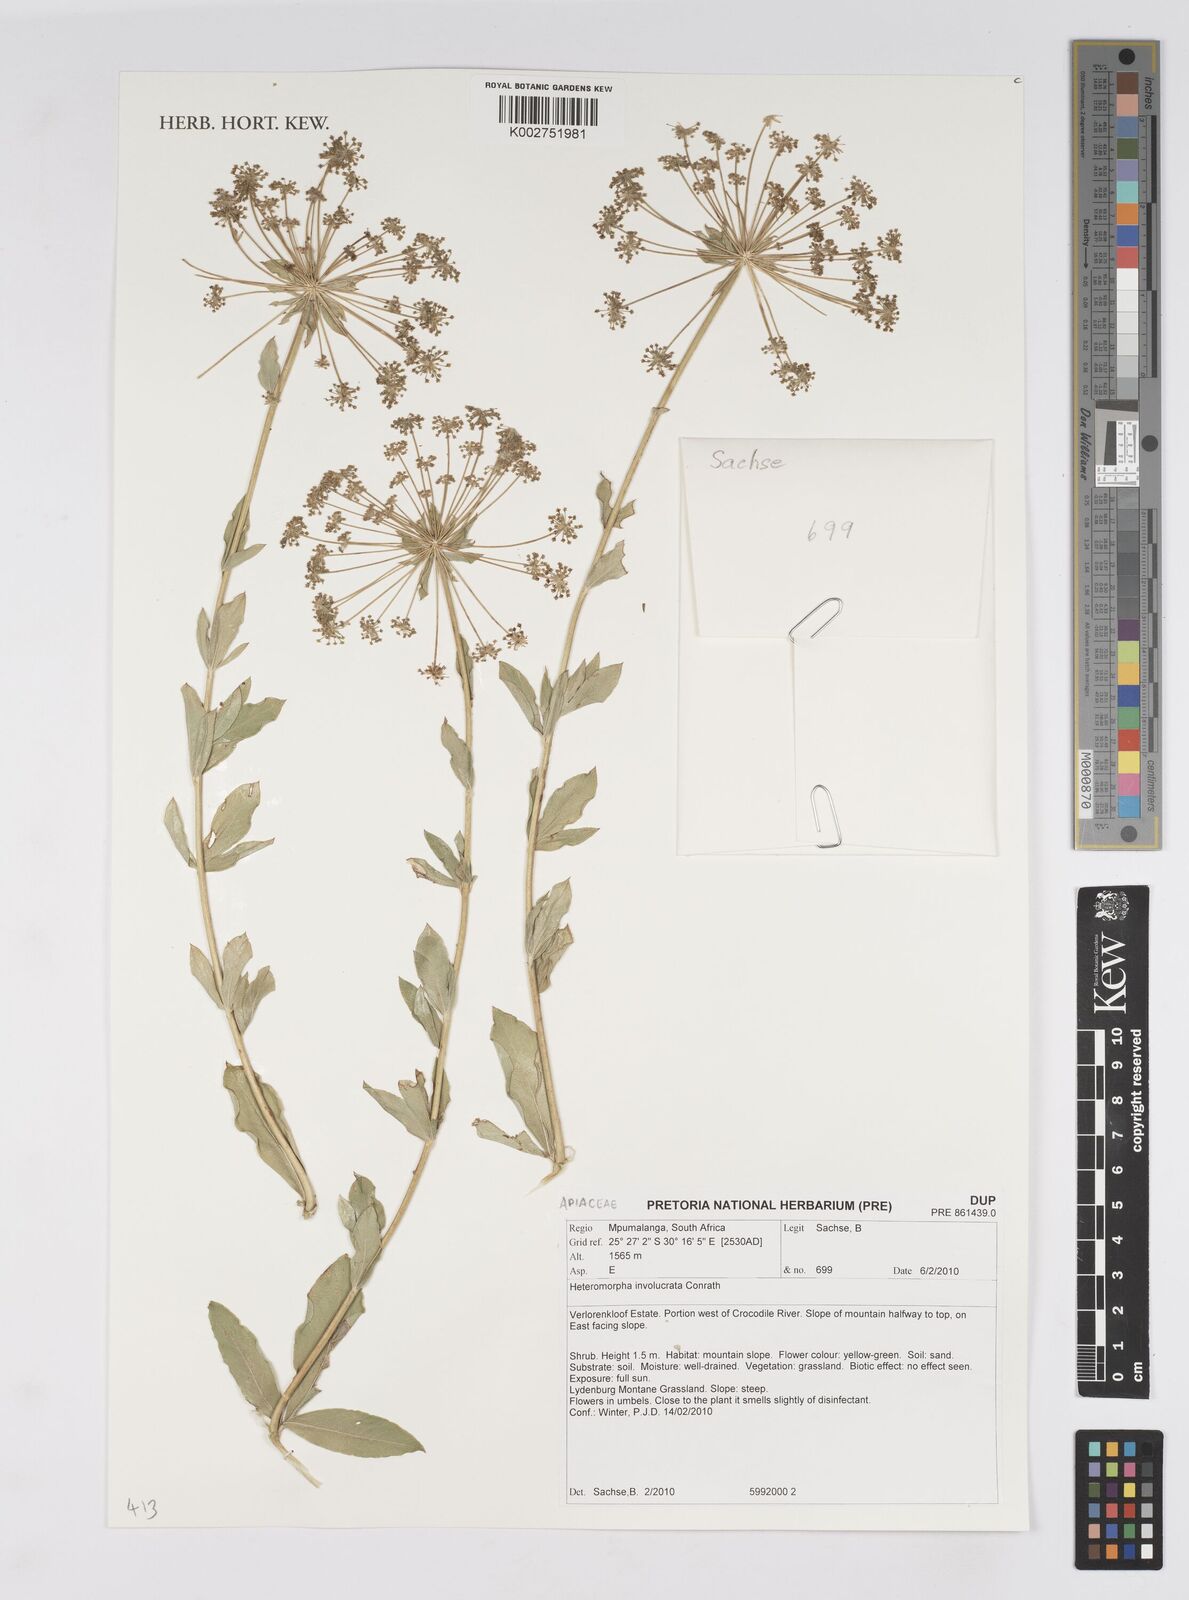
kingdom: Plantae
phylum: Tracheophyta
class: Magnoliopsida
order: Apiales
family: Apiaceae
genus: Heteromorpha
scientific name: Heteromorpha involucrata
